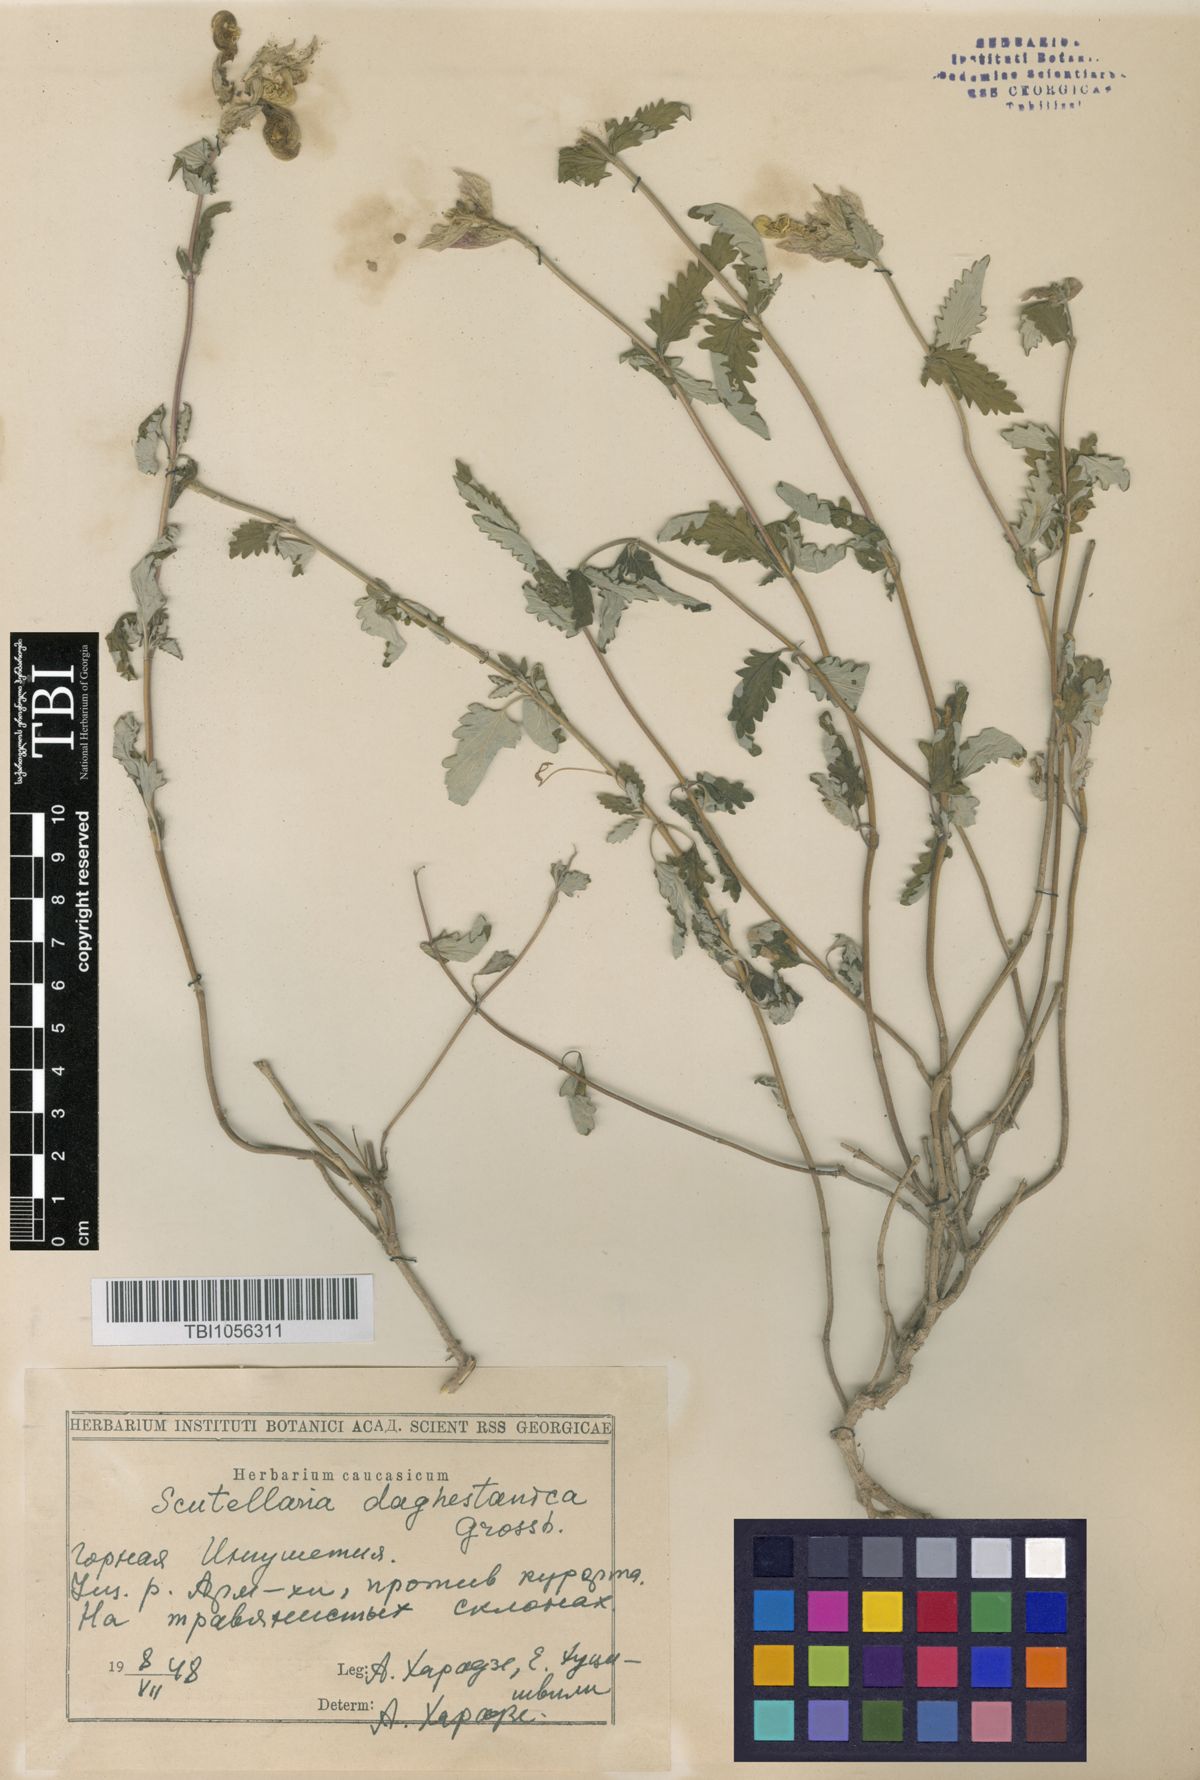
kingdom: Plantae
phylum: Tracheophyta
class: Magnoliopsida
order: Lamiales
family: Lamiaceae
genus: Scutellaria
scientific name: Scutellaria daghestanica
